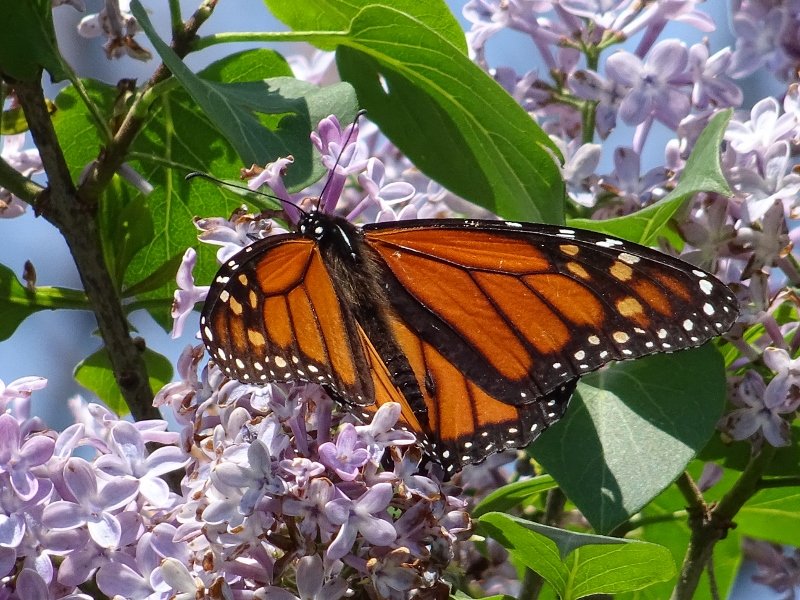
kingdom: Animalia
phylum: Arthropoda
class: Insecta
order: Lepidoptera
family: Nymphalidae
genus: Danaus
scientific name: Danaus plexippus
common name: Monarch
